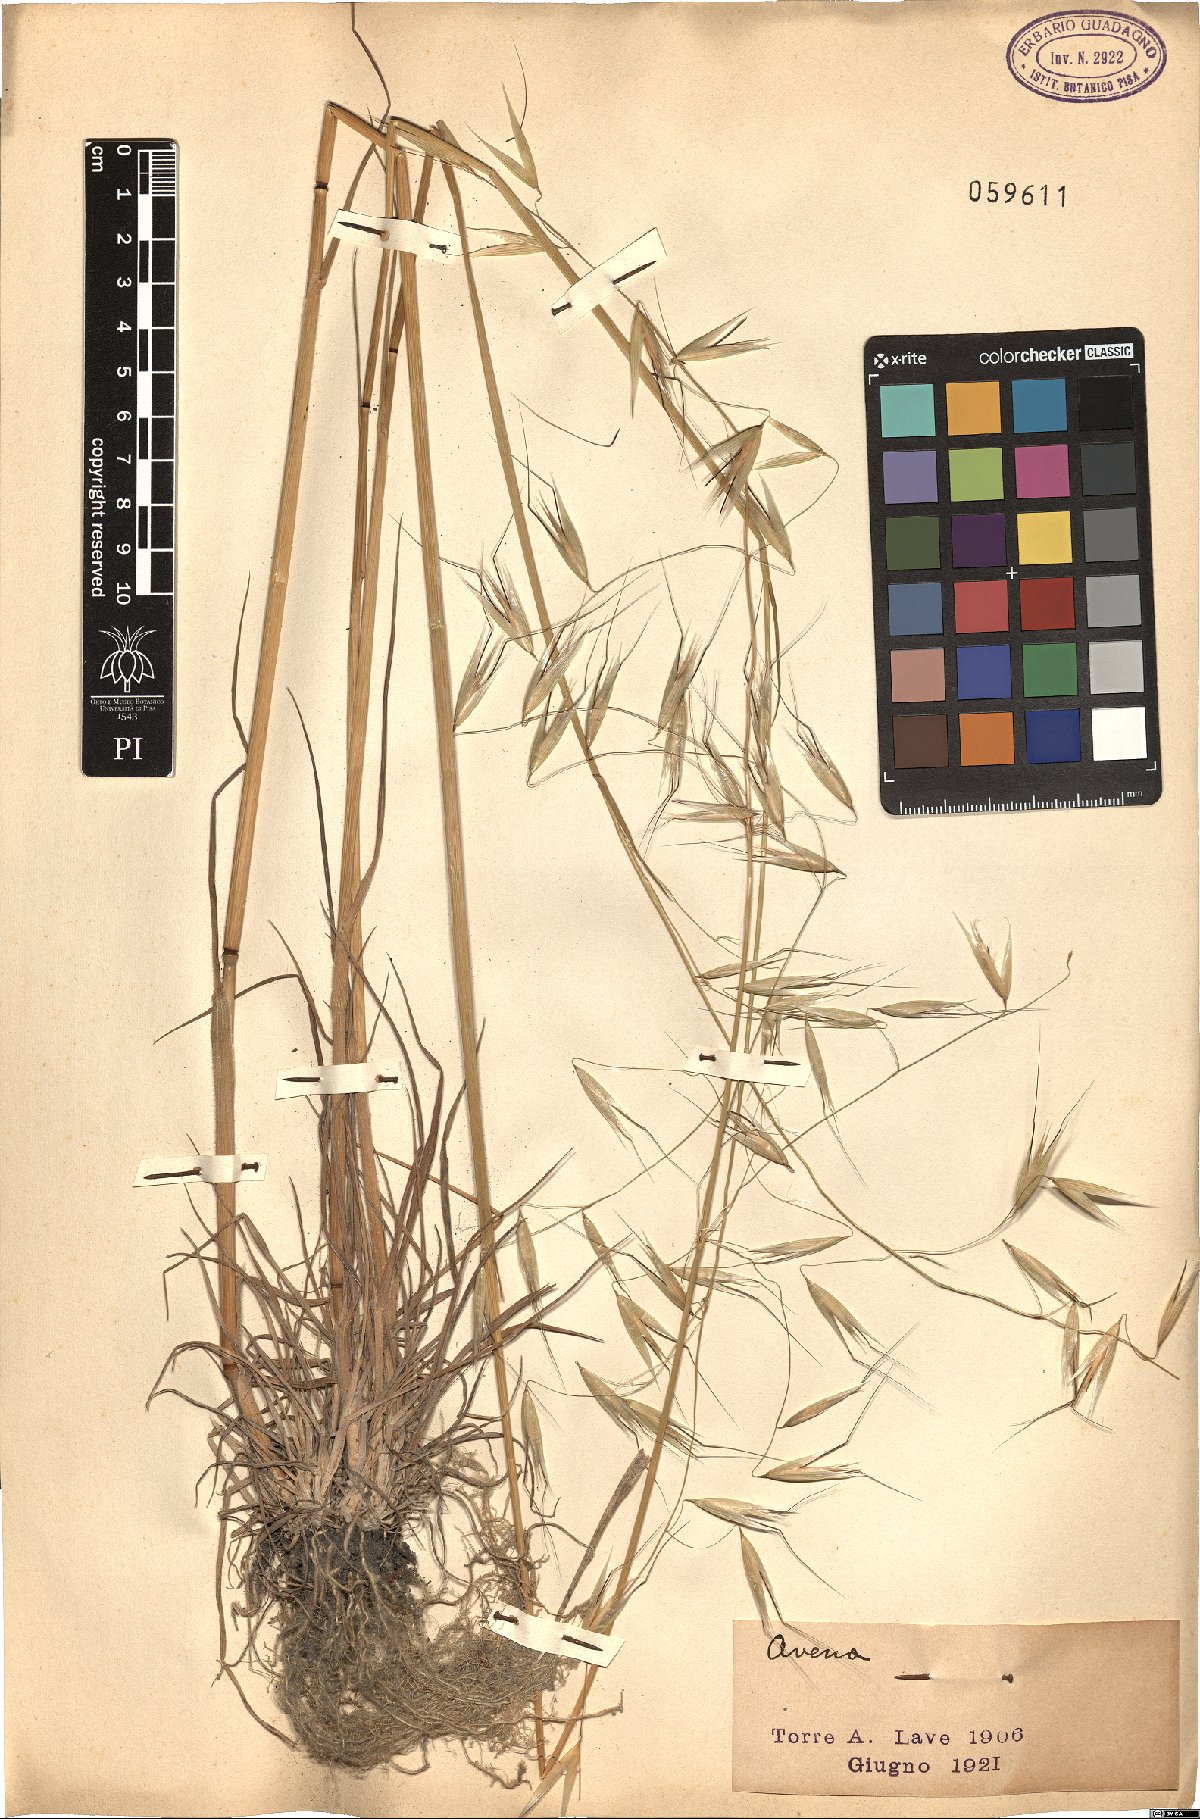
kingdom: Plantae
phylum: Tracheophyta
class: Liliopsida
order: Poales
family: Poaceae
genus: Avena
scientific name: Avena
